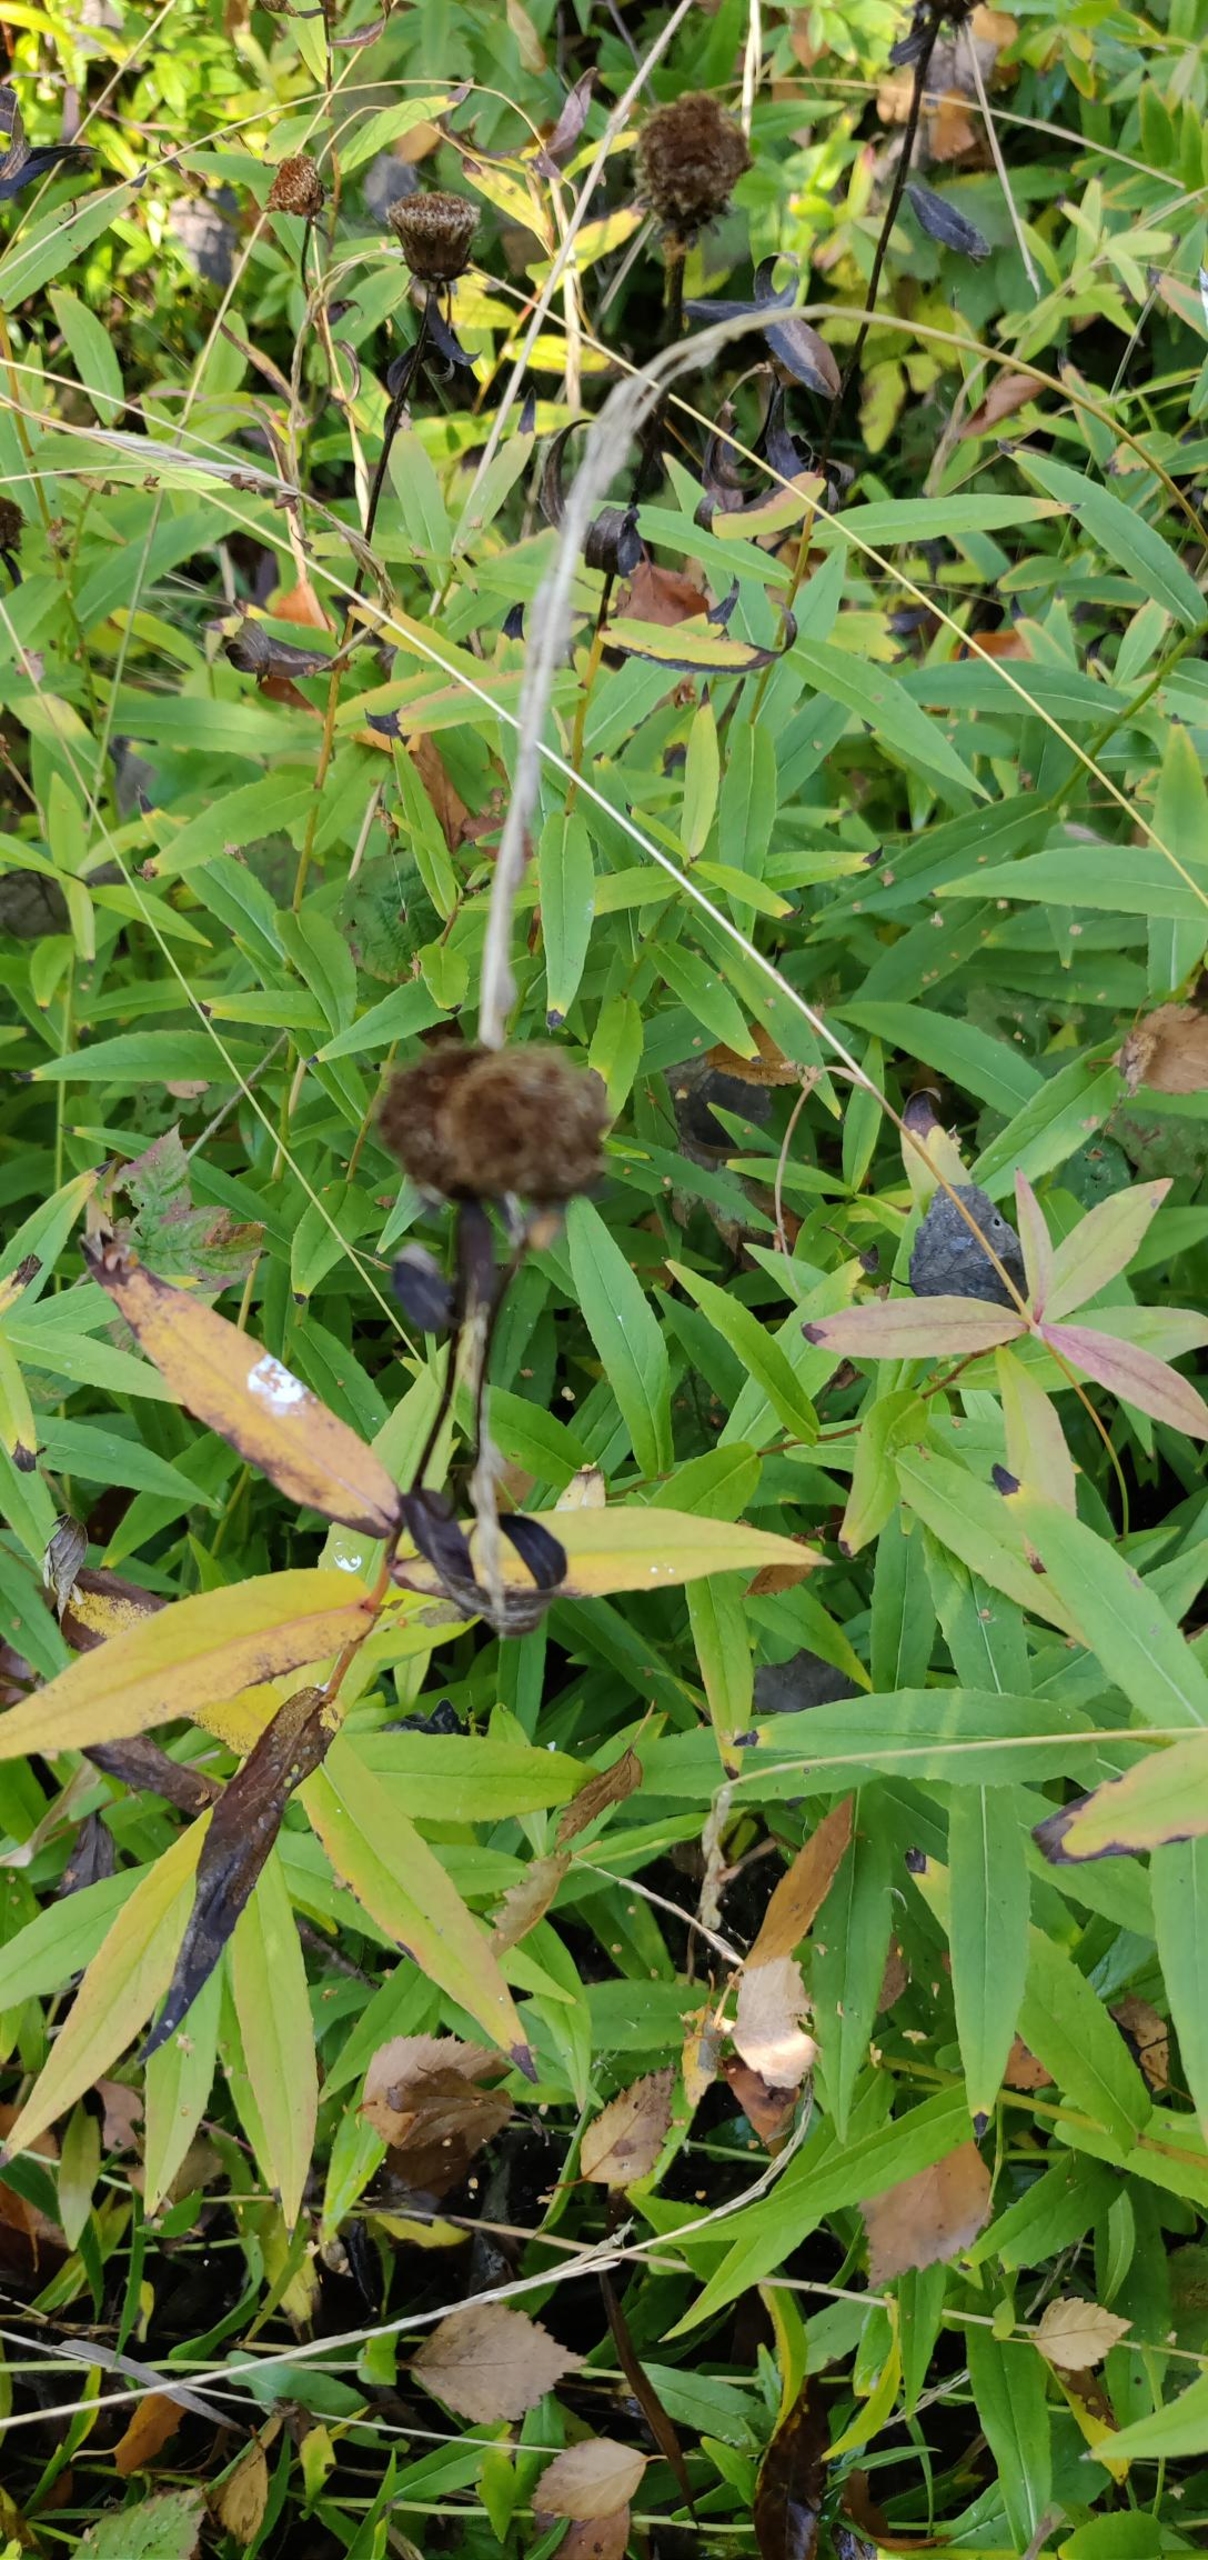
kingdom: Plantae
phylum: Tracheophyta
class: Magnoliopsida
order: Asterales
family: Asteraceae
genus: Pentanema
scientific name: Pentanema salicinum
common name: Pile-alant
